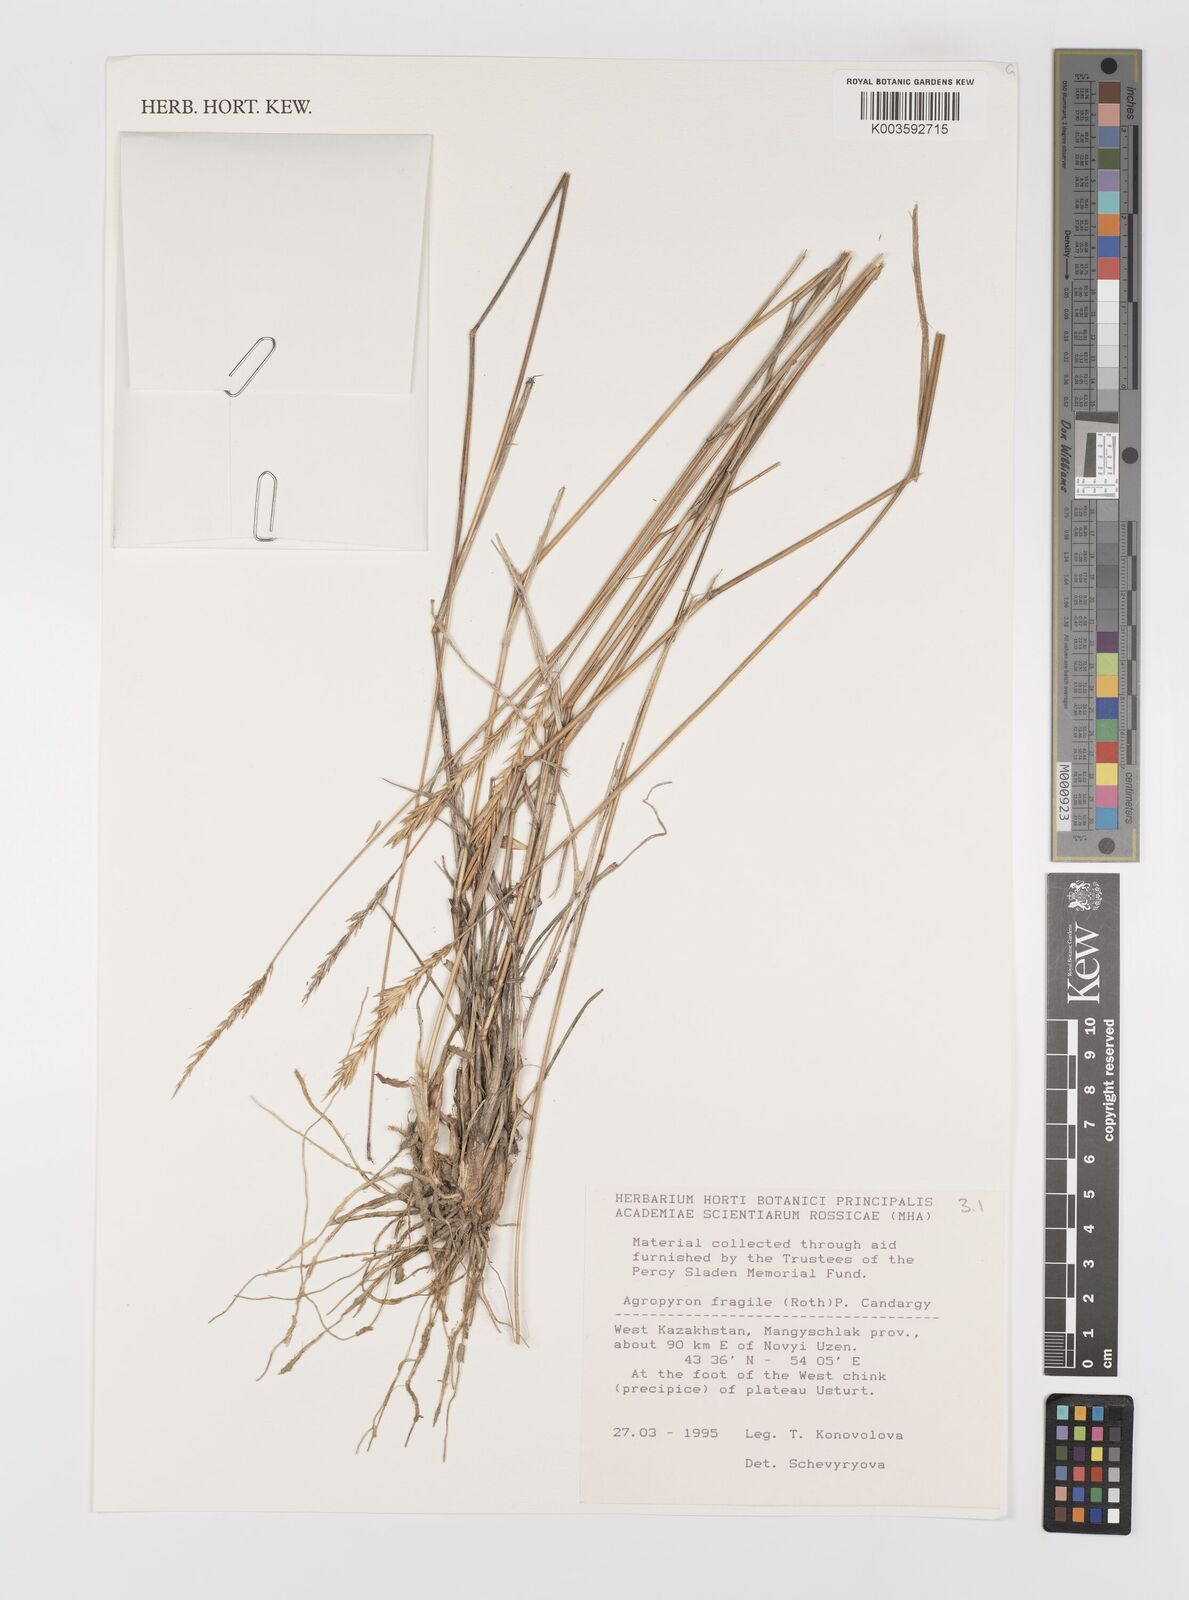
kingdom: Plantae
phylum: Tracheophyta
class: Liliopsida
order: Poales
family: Poaceae
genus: Agropyron
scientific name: Agropyron fragile
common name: Siberian wheatgrass
